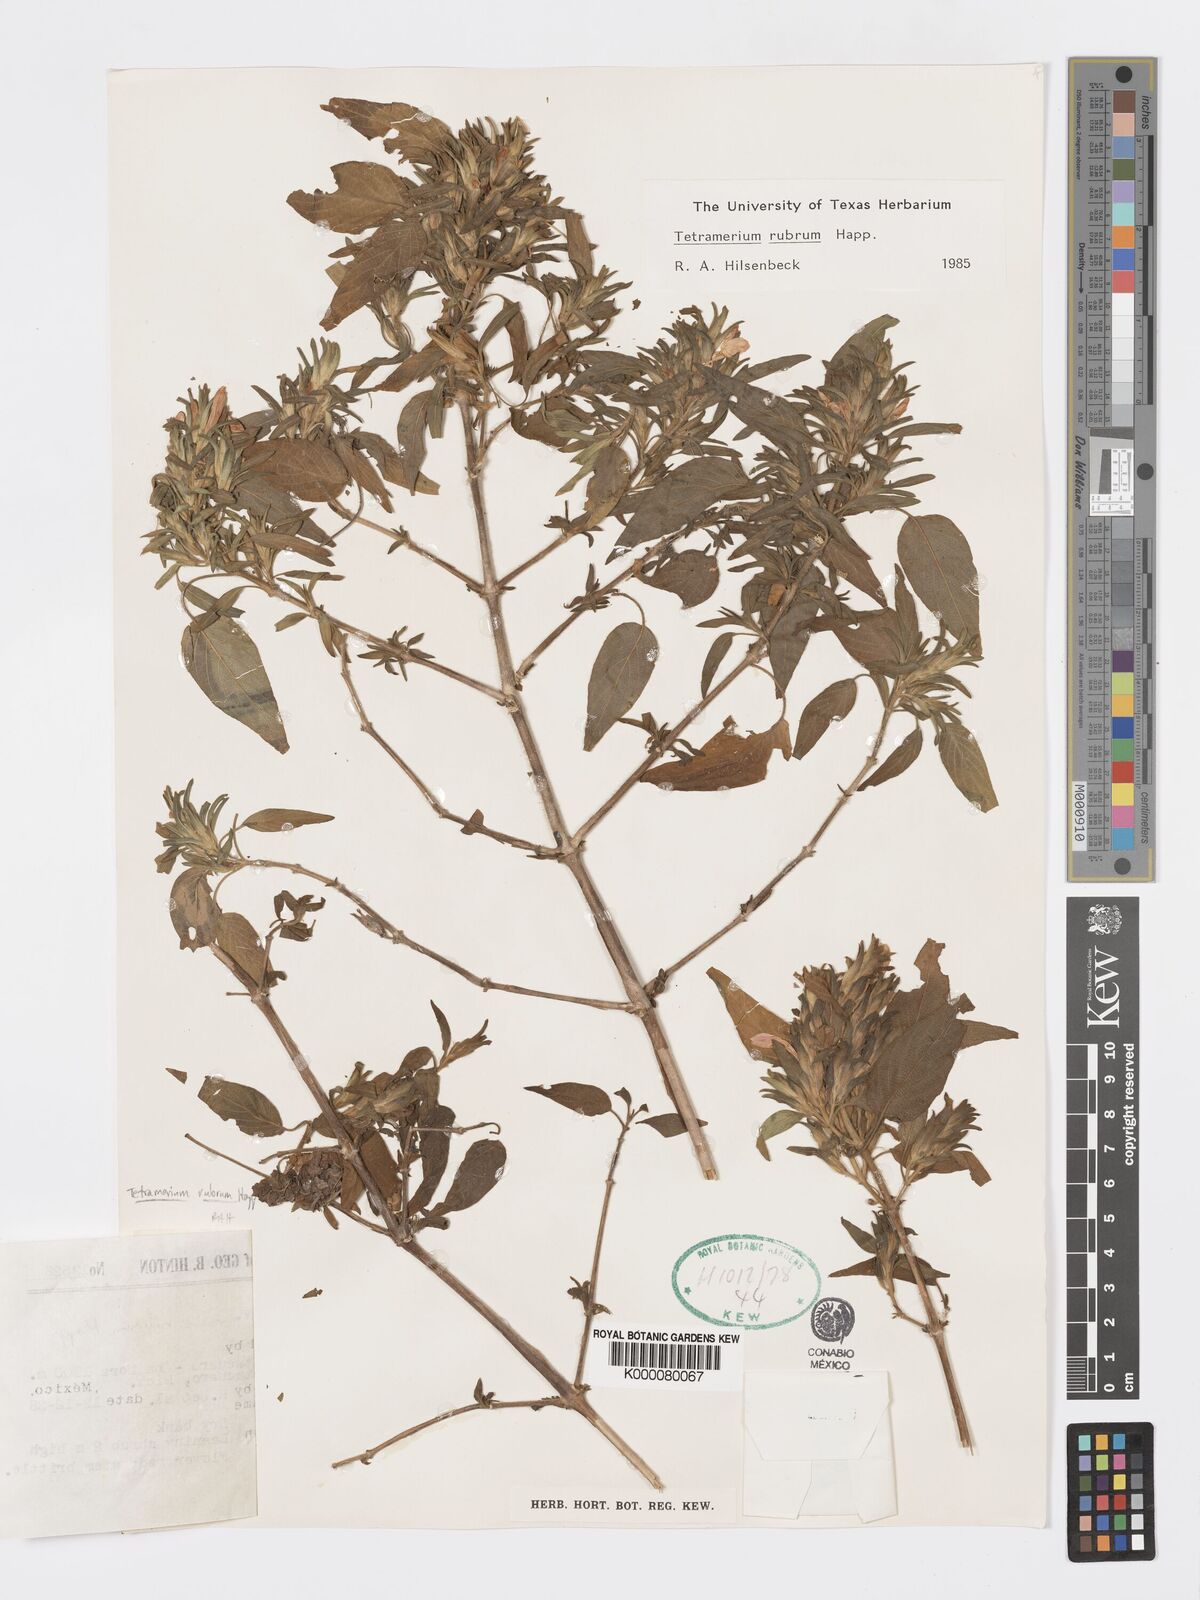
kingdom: Plantae
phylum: Tracheophyta
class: Magnoliopsida
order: Lamiales
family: Acanthaceae
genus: Tetramerium
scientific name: Tetramerium
